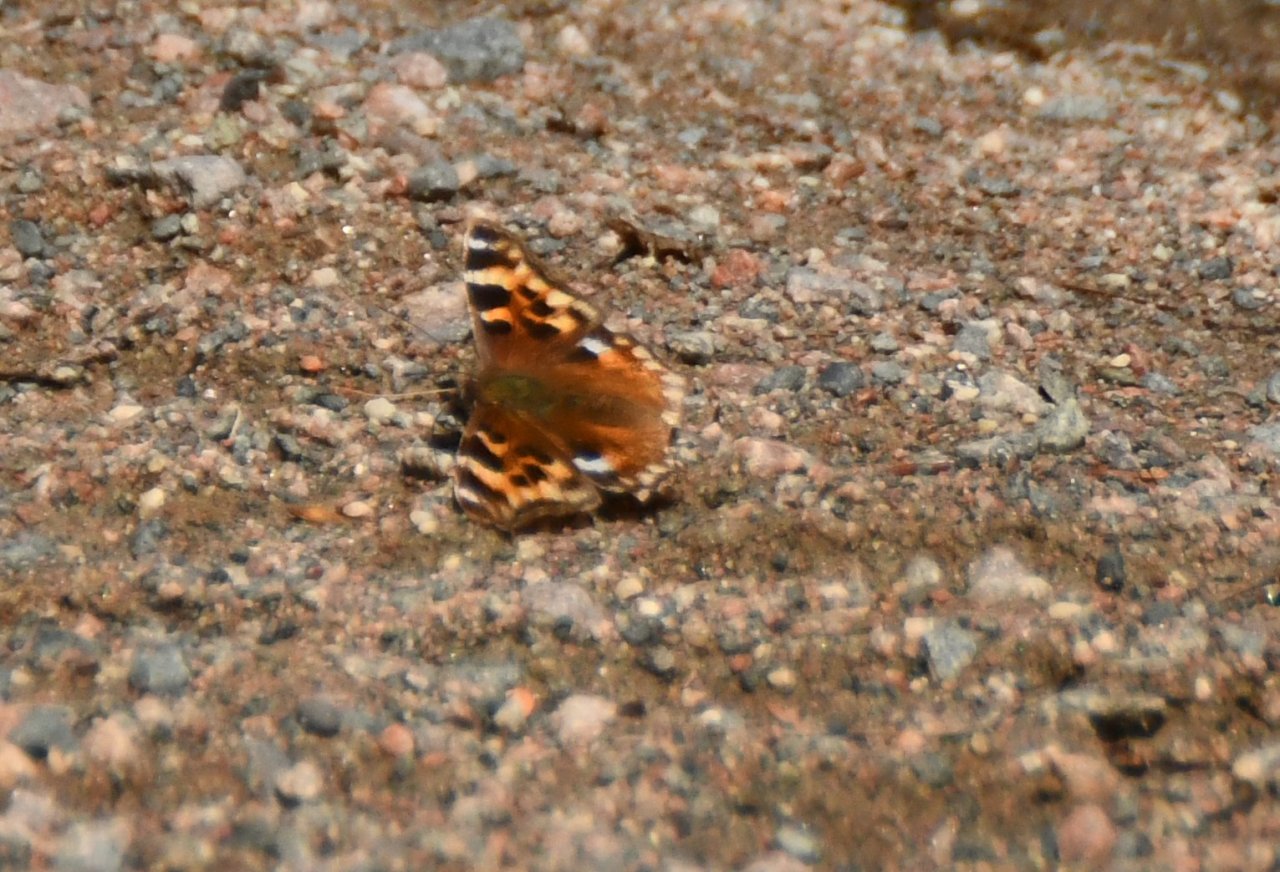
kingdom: Animalia
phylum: Arthropoda
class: Insecta
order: Lepidoptera
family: Nymphalidae
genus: Polygonia
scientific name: Polygonia vaualbum
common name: Compton Tortoiseshell
